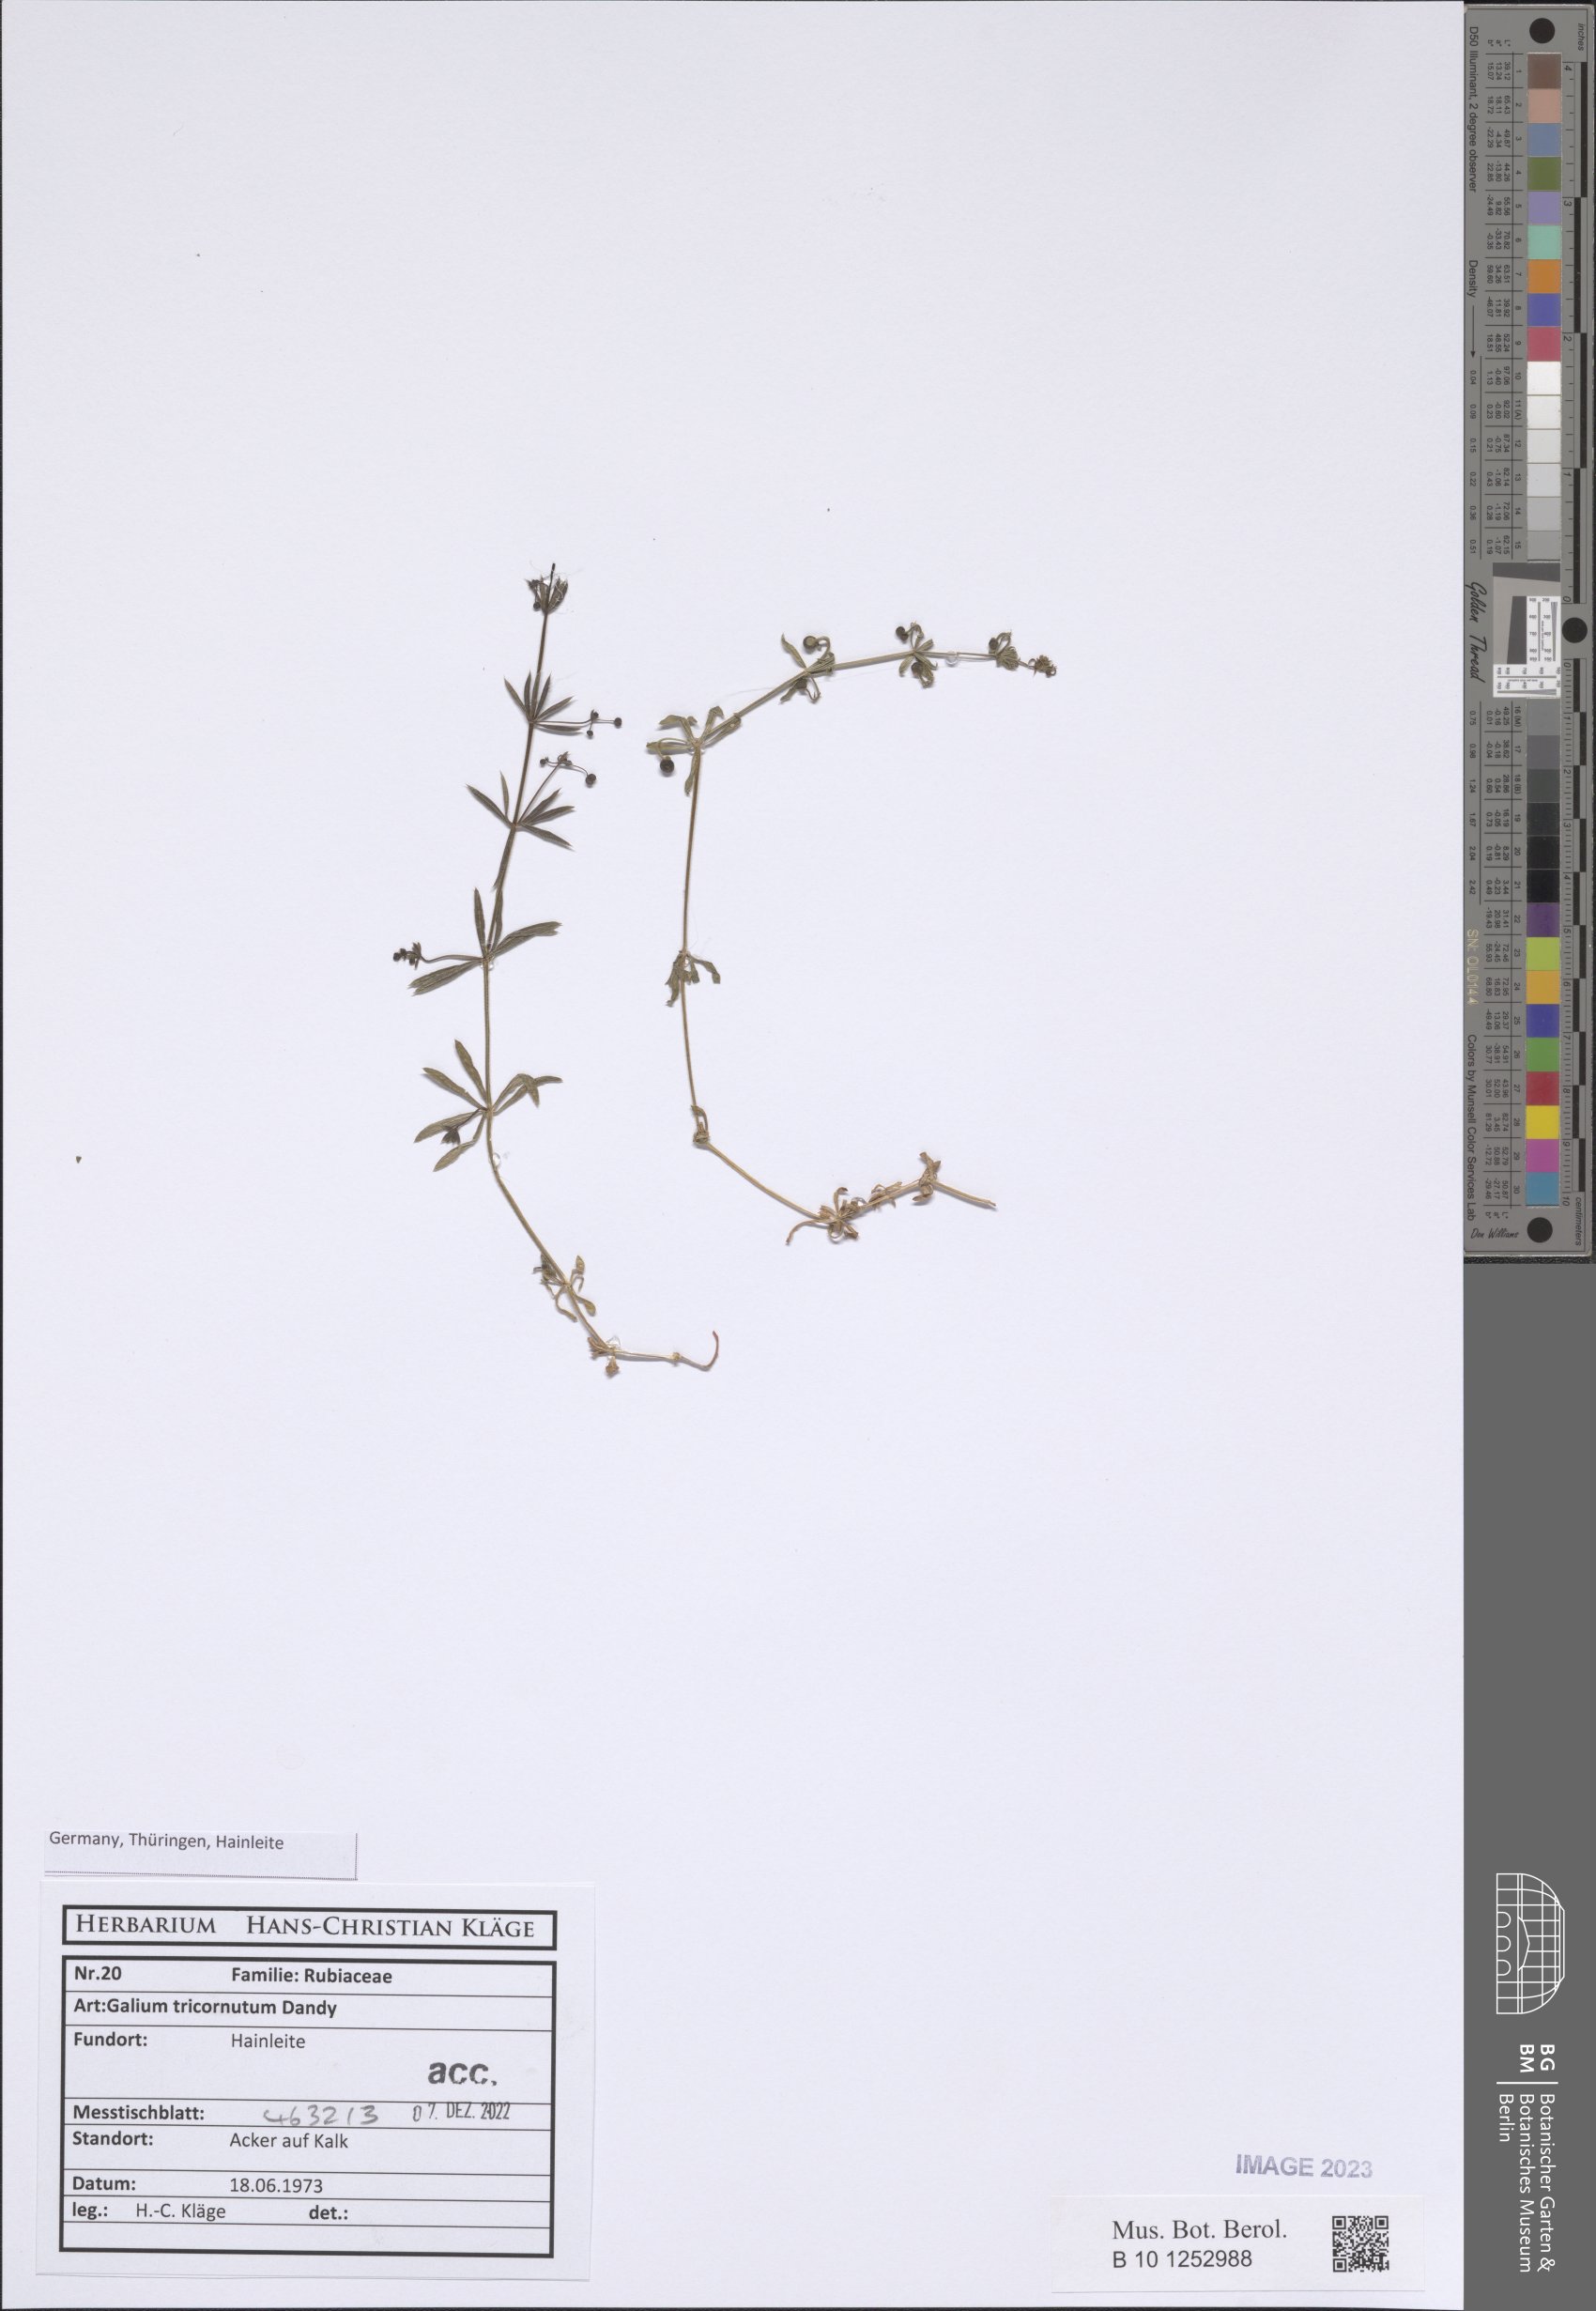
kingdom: Plantae
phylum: Tracheophyta
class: Magnoliopsida
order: Gentianales
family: Rubiaceae
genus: Galium
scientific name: Galium tricornutum
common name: Corn cleavers
